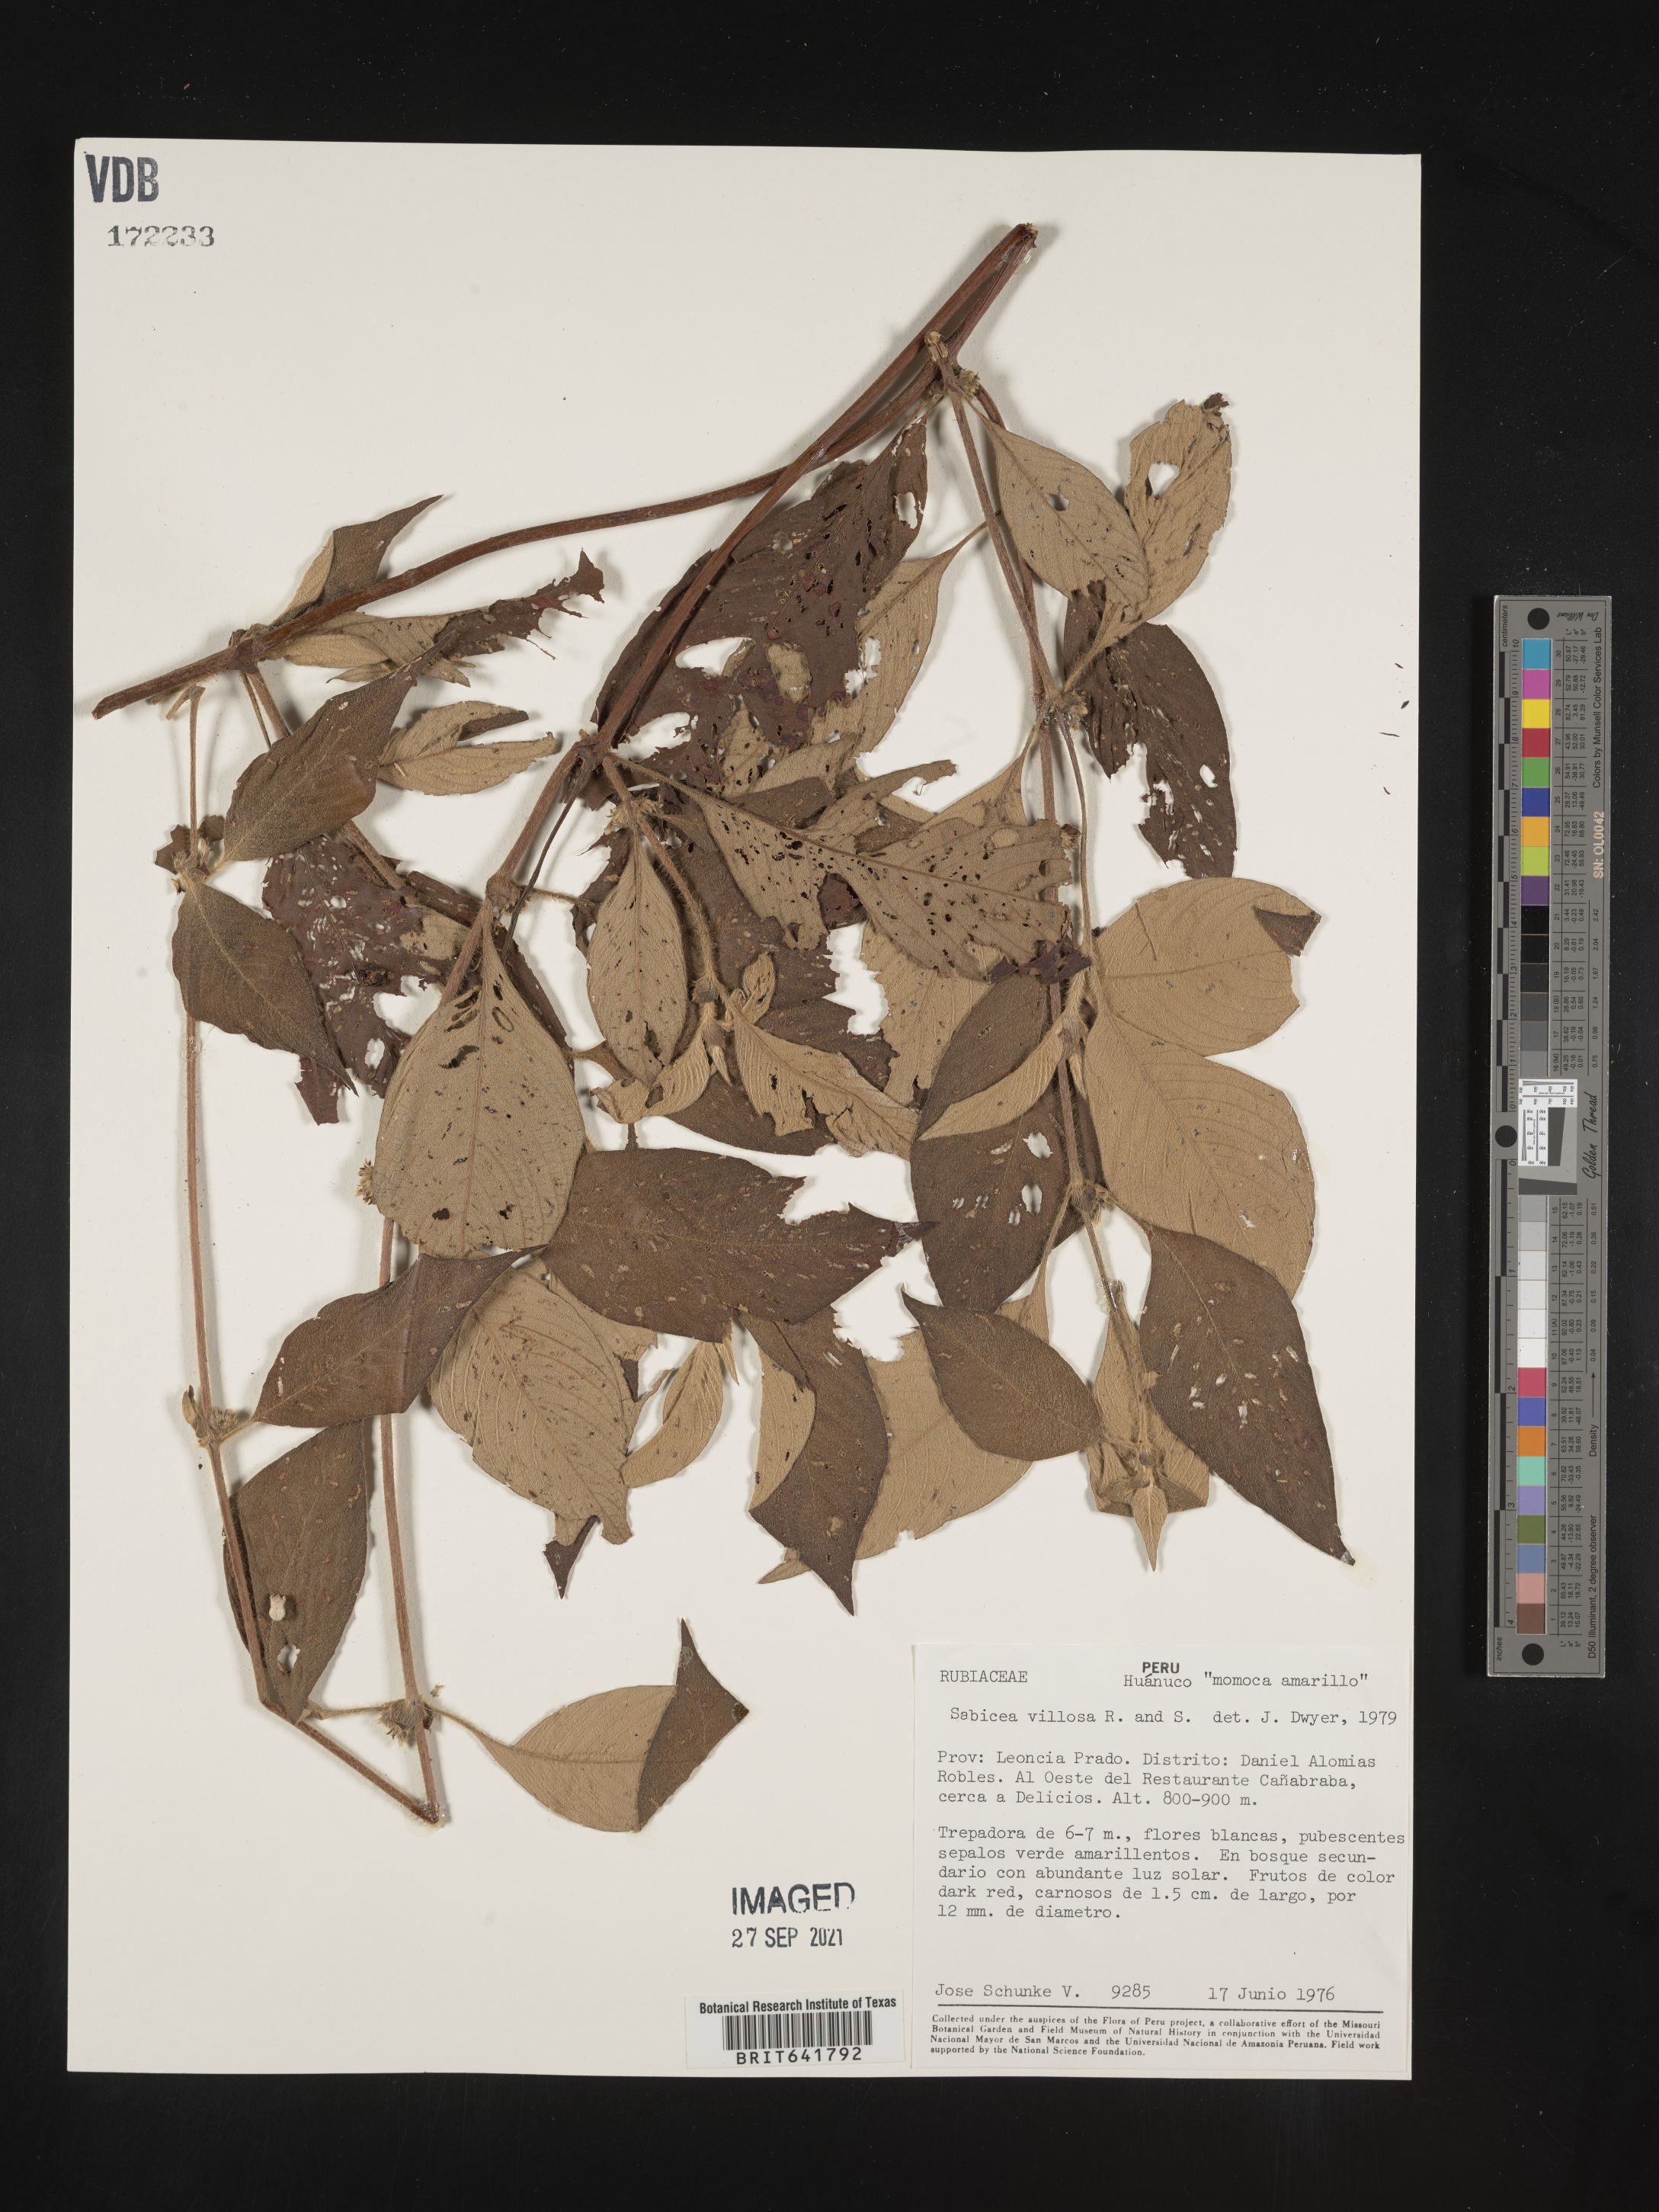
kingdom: Plantae
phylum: Tracheophyta
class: Magnoliopsida
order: Gentianales
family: Rubiaceae
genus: Sabicea
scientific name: Sabicea
